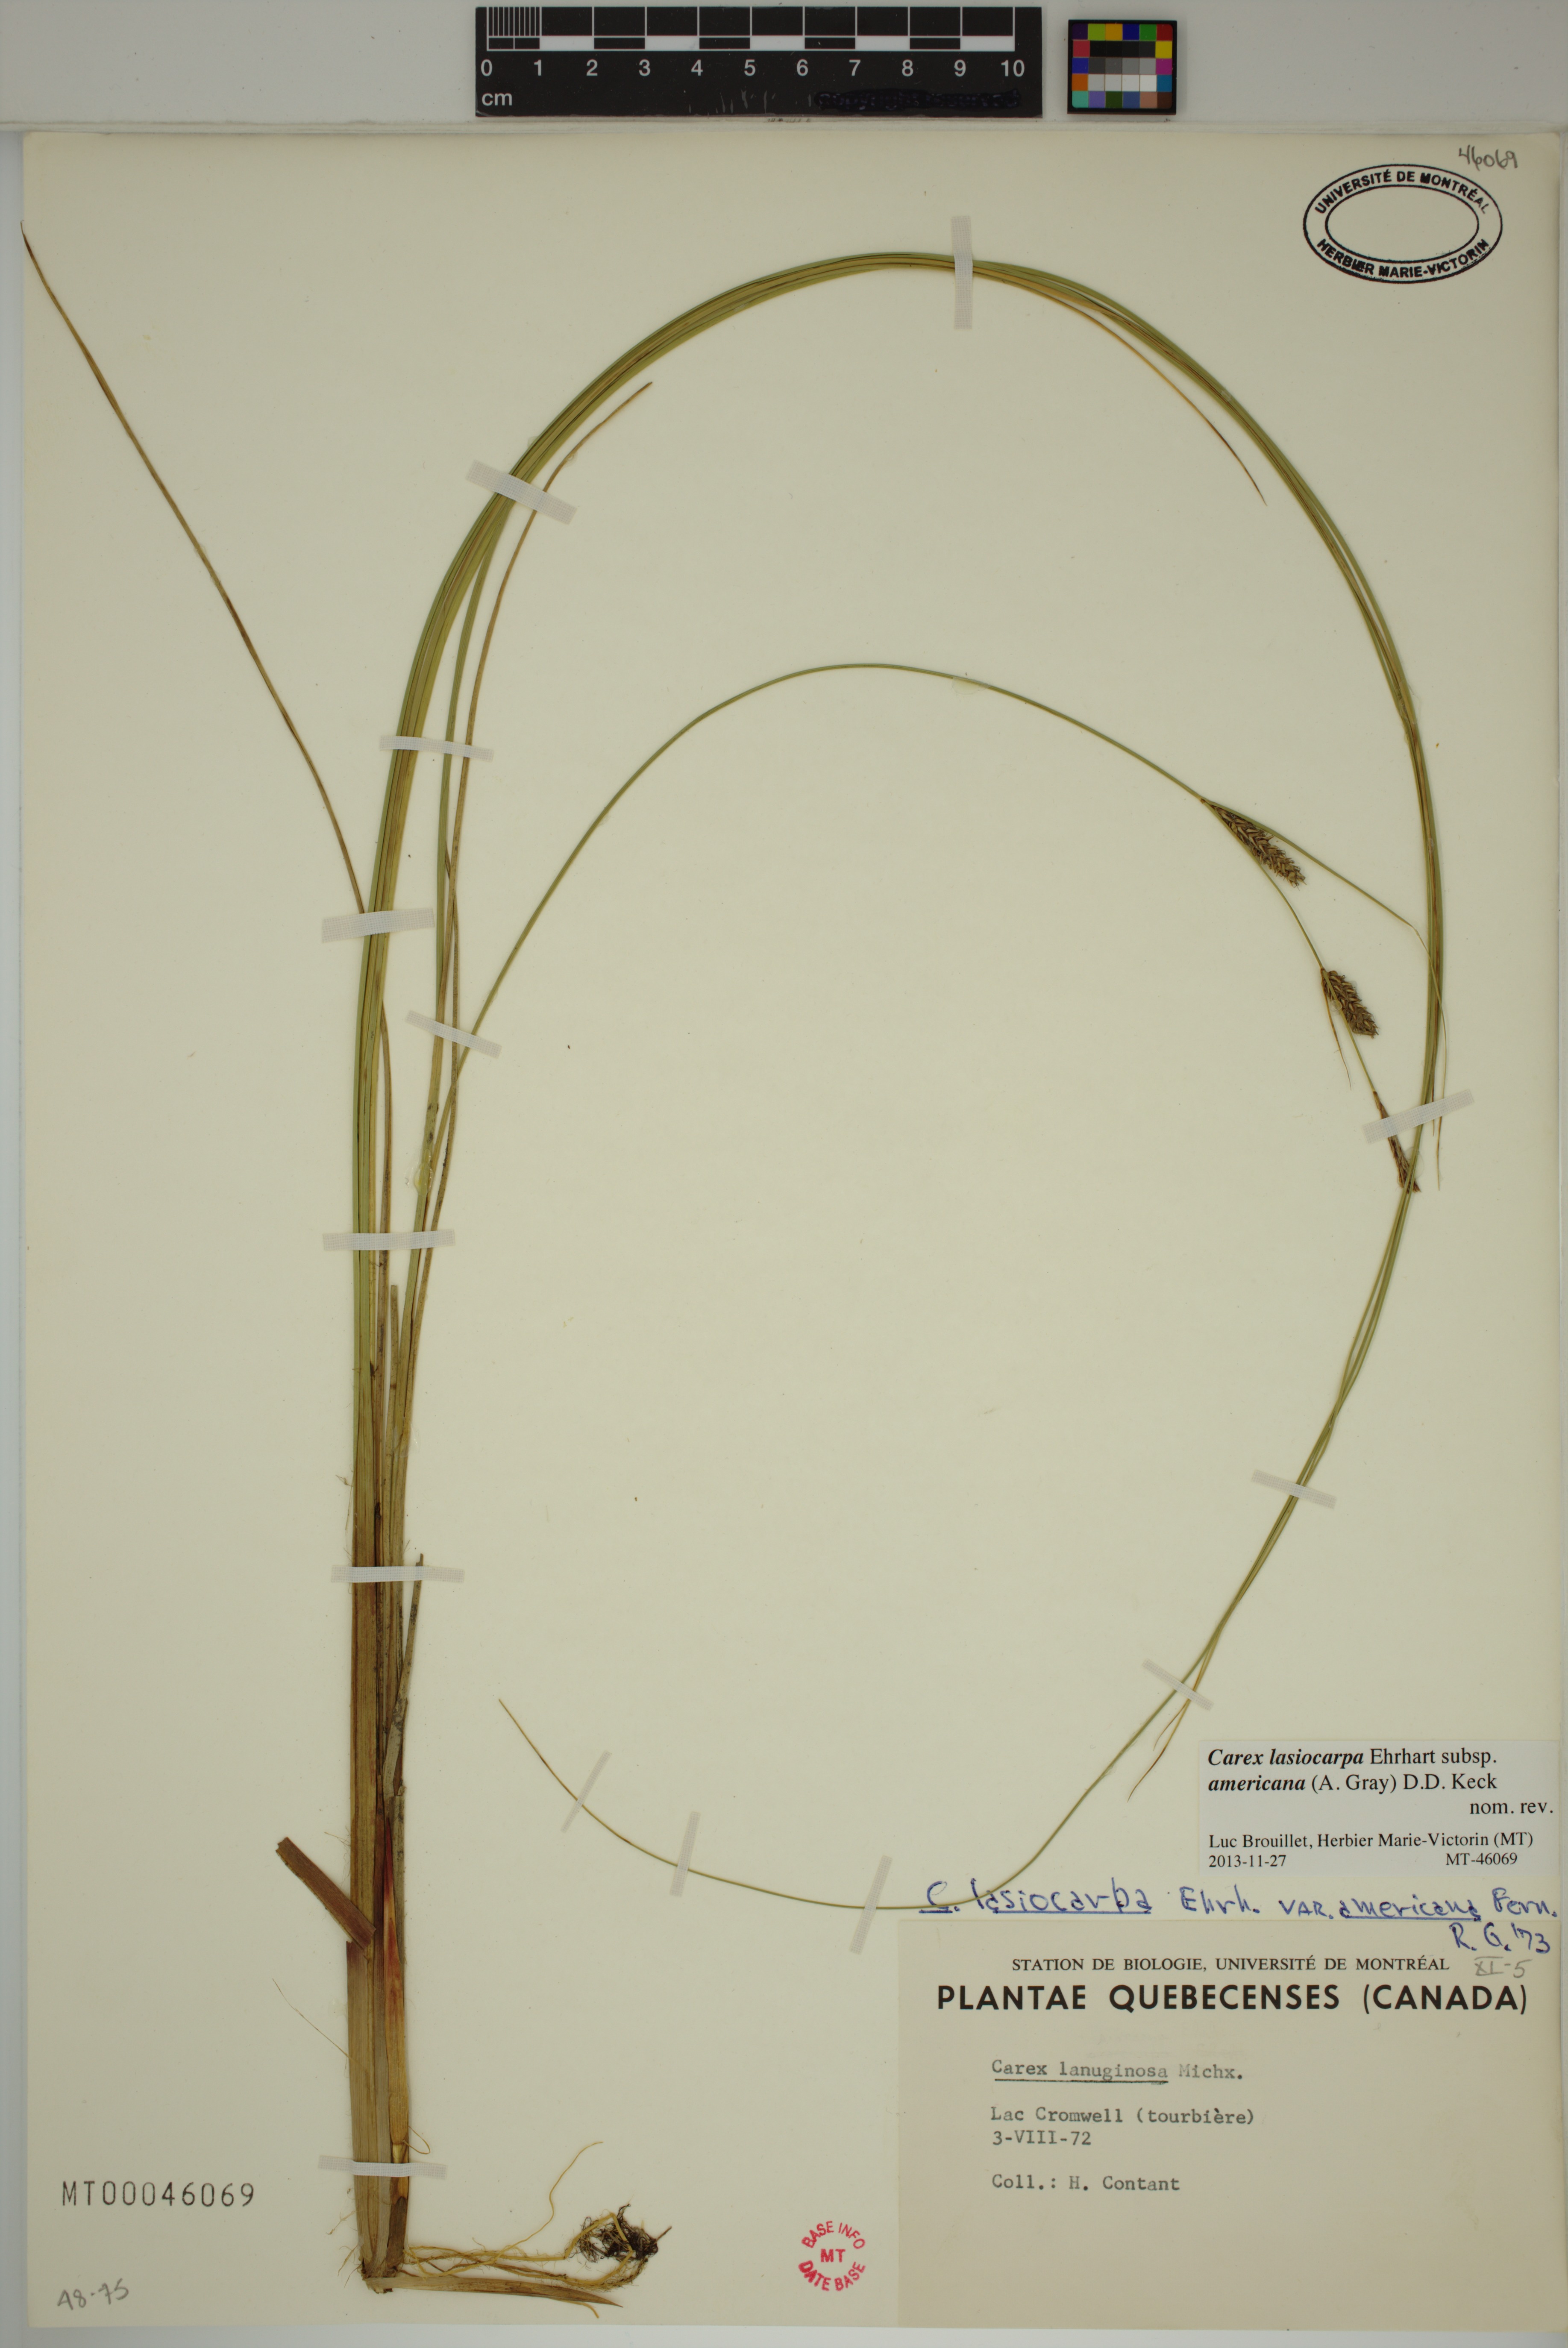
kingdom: Plantae
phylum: Tracheophyta
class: Liliopsida
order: Poales
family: Cyperaceae
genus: Carex
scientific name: Carex lasiocarpa
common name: Slender sedge
